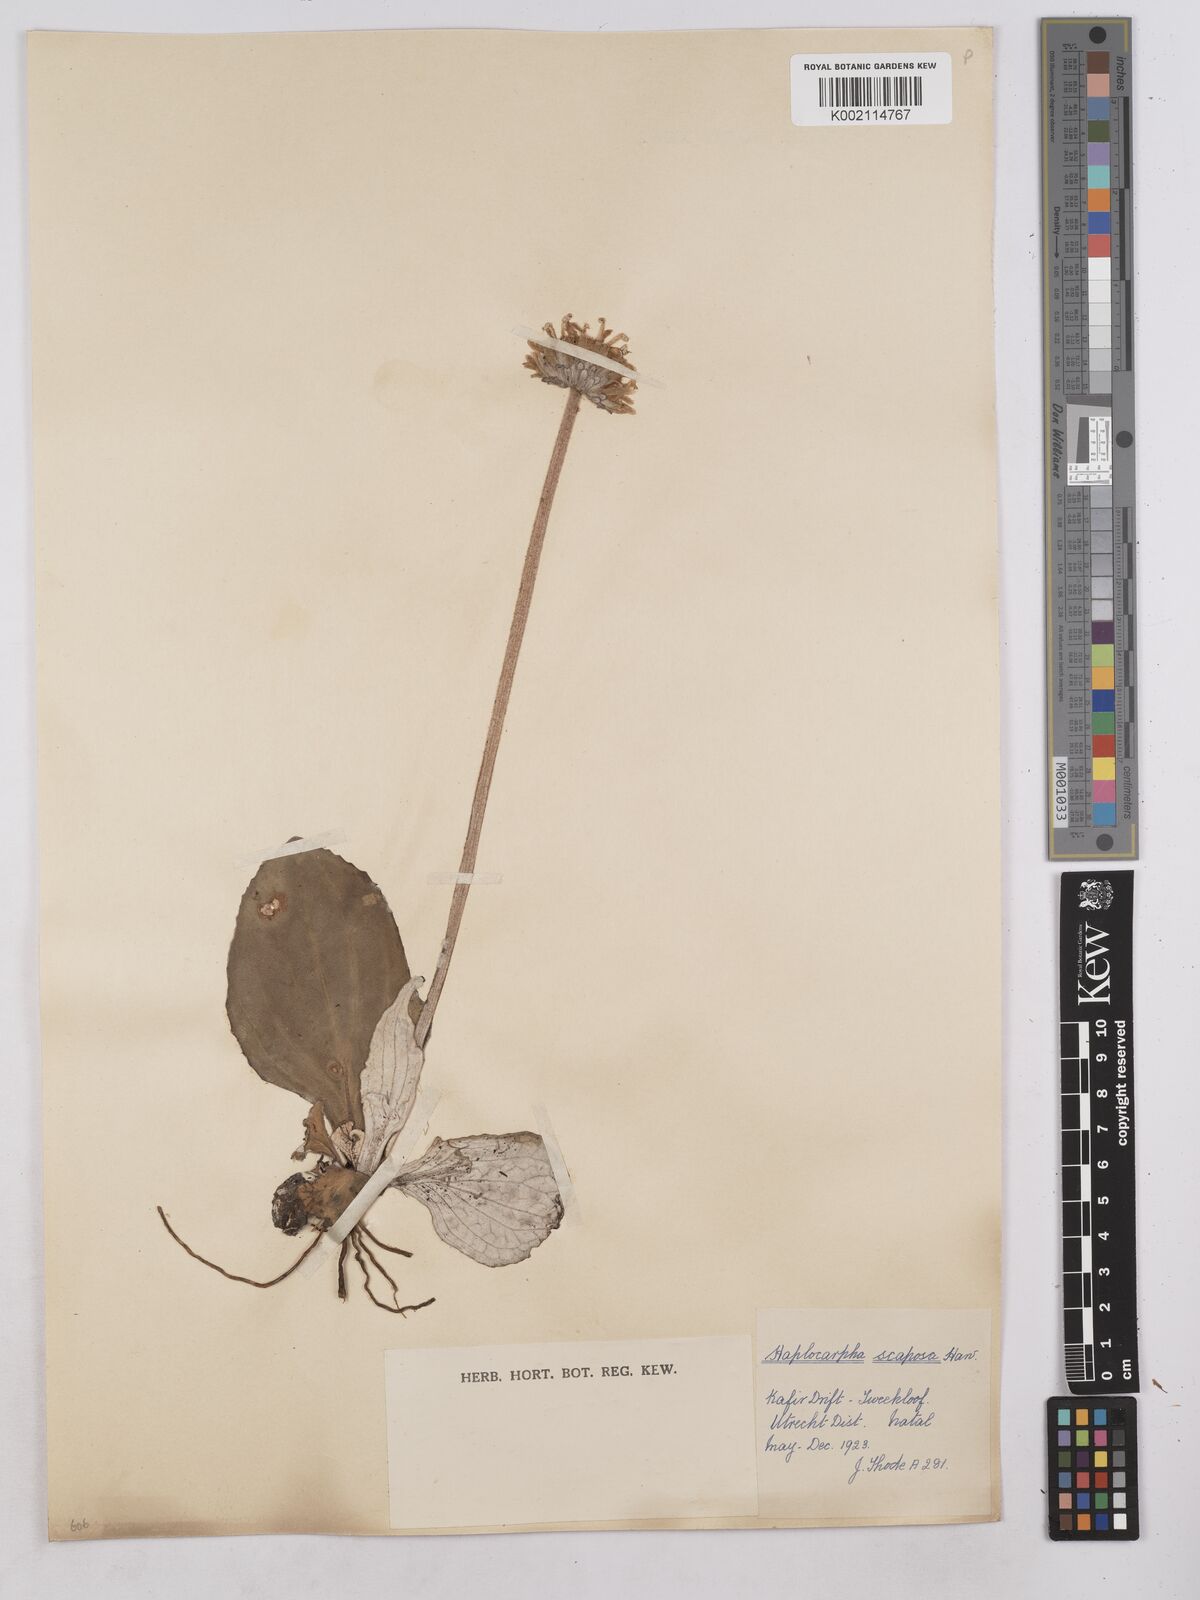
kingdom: Plantae
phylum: Tracheophyta
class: Magnoliopsida
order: Asterales
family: Asteraceae
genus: Haplocarpha
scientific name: Haplocarpha scaposa
